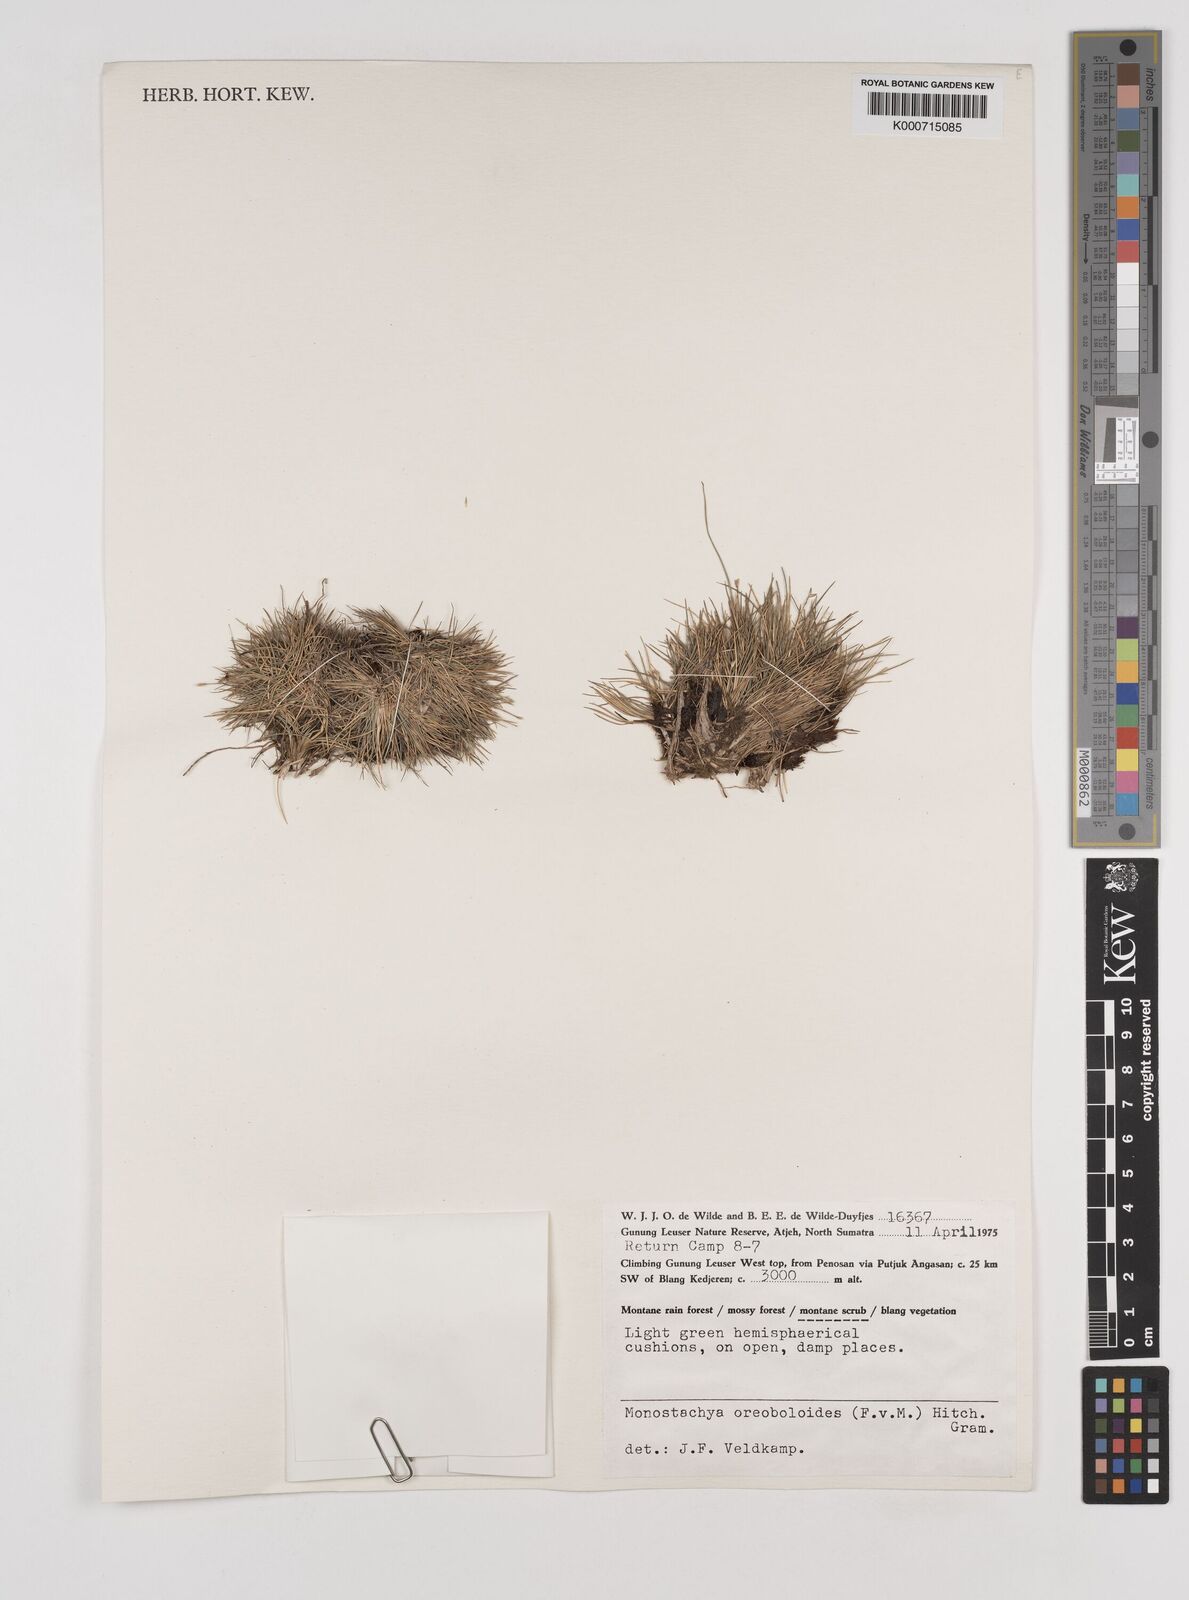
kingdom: Plantae
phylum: Tracheophyta
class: Liliopsida
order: Poales
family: Poaceae
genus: Rytidosperma
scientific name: Rytidosperma oreoboloides
